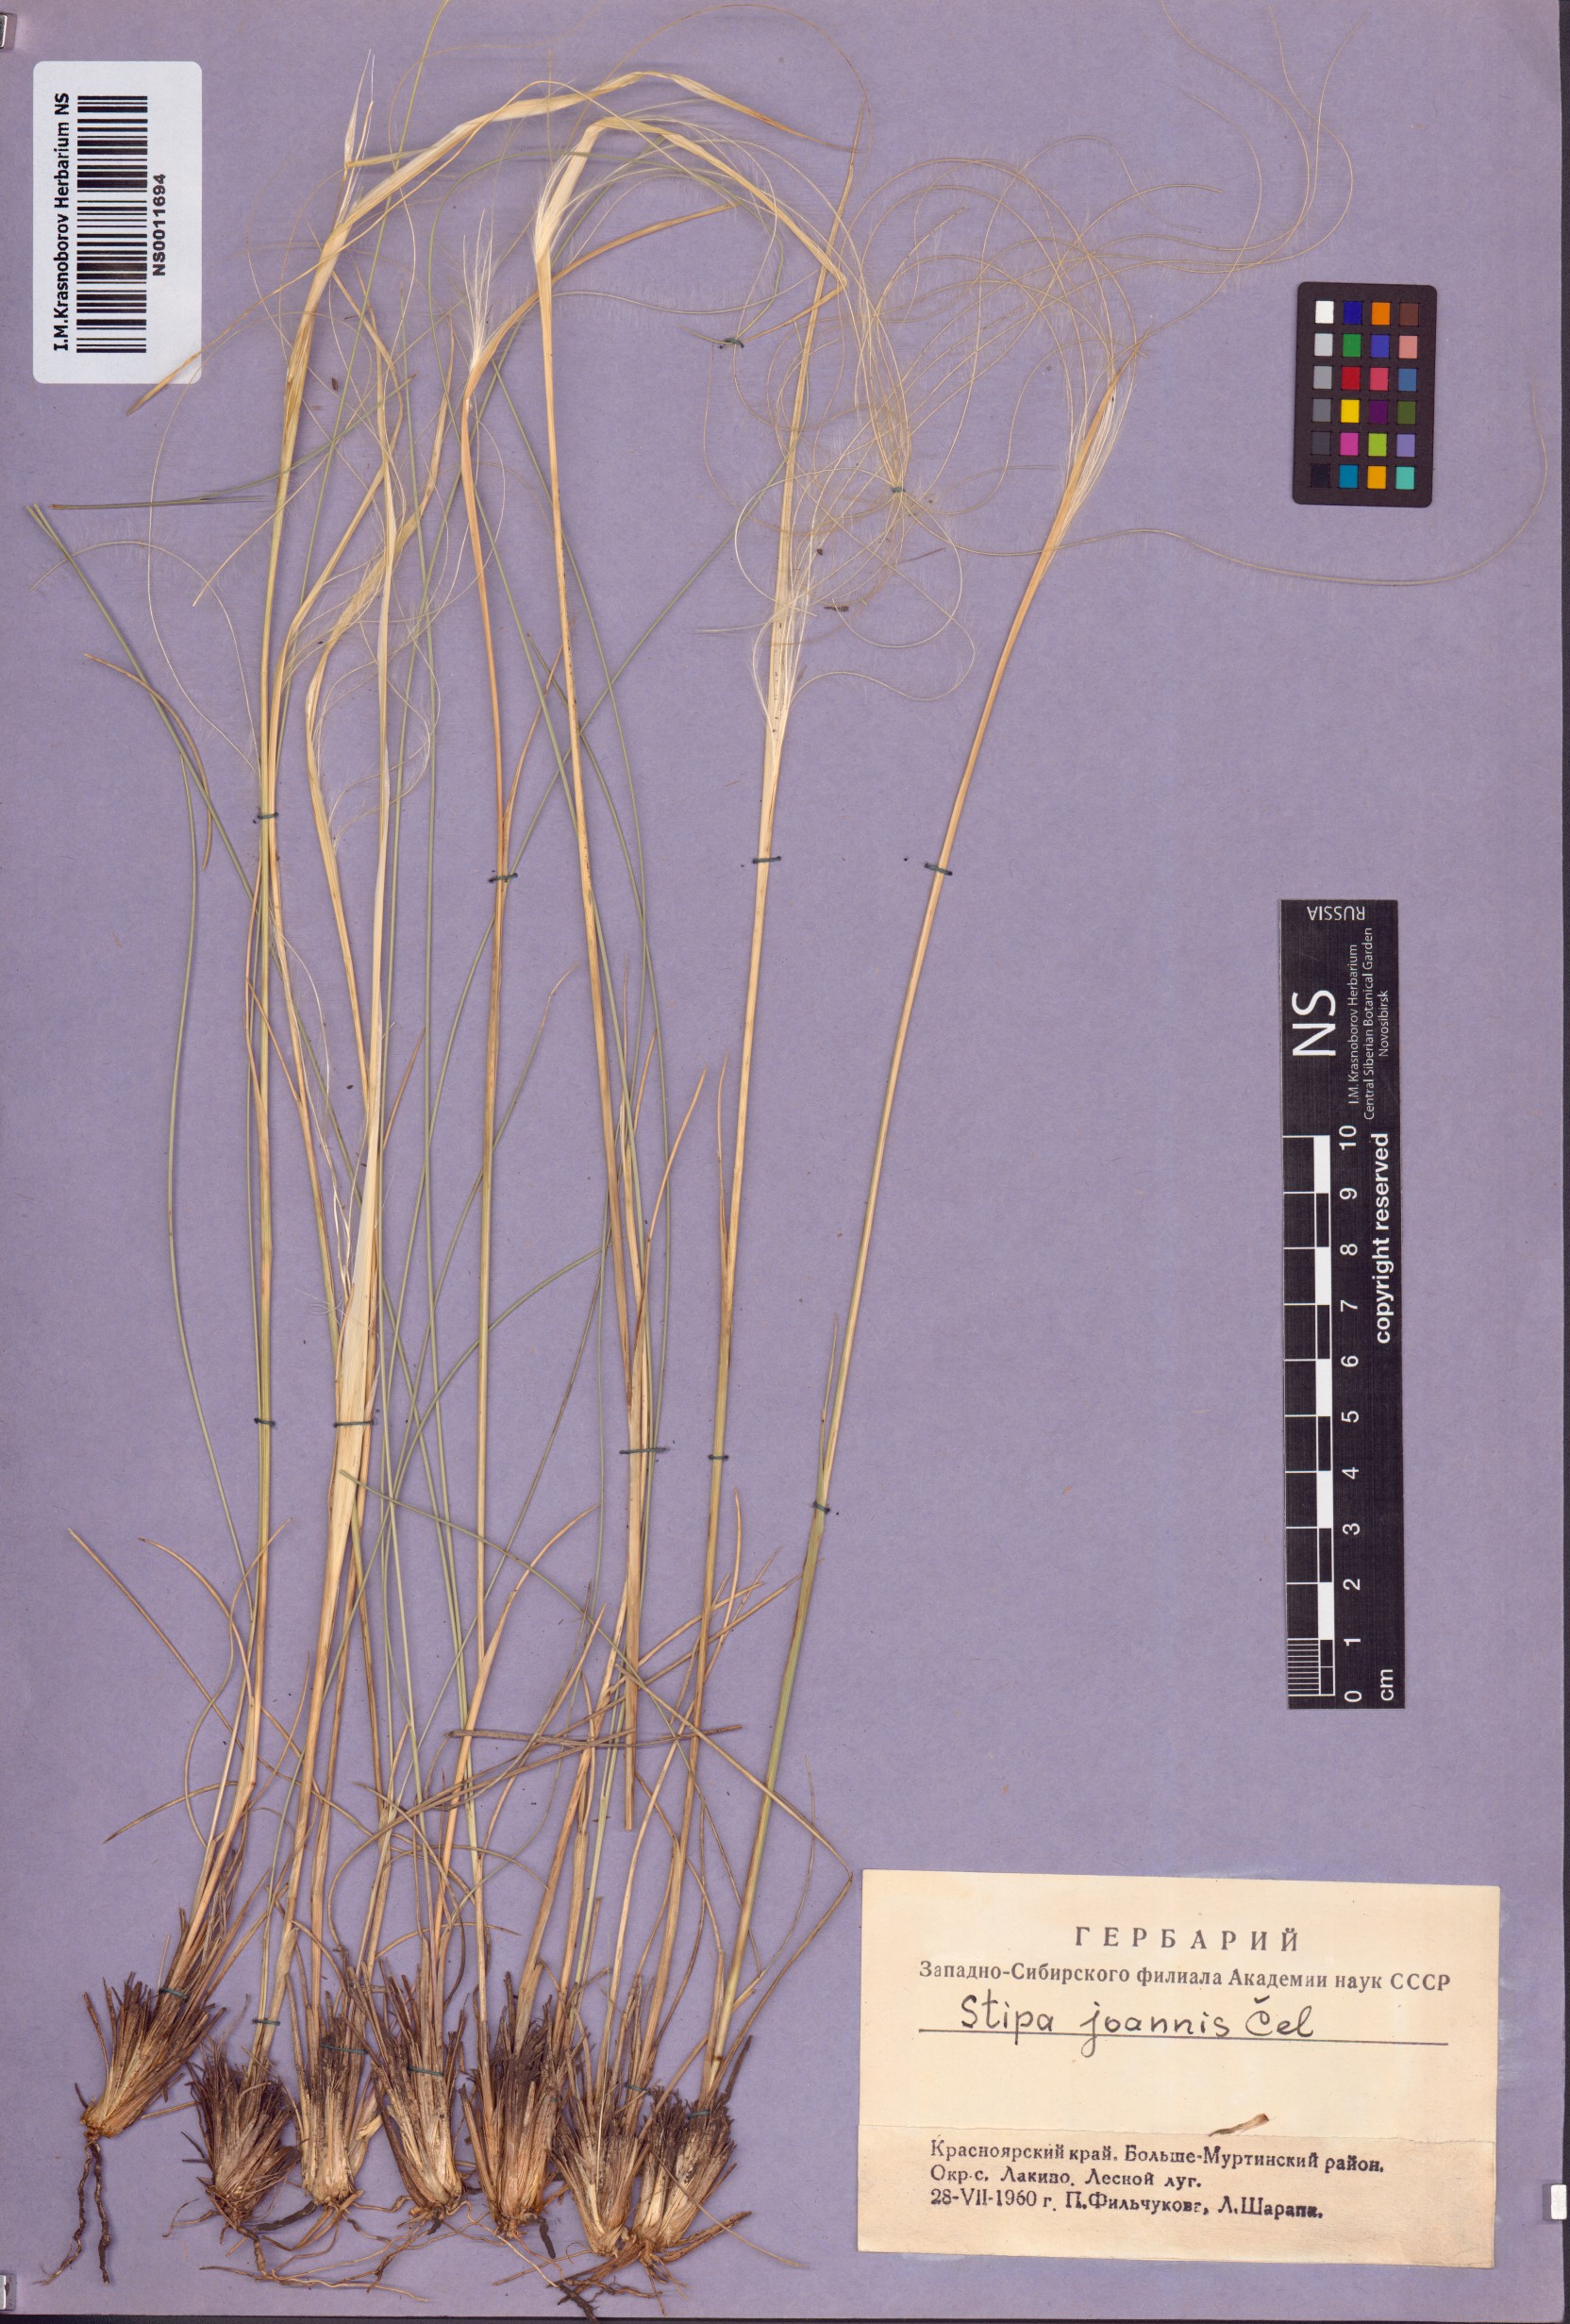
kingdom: Plantae
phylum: Tracheophyta
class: Liliopsida
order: Poales
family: Poaceae
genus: Stipa
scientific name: Stipa pennata
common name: European feather grass
